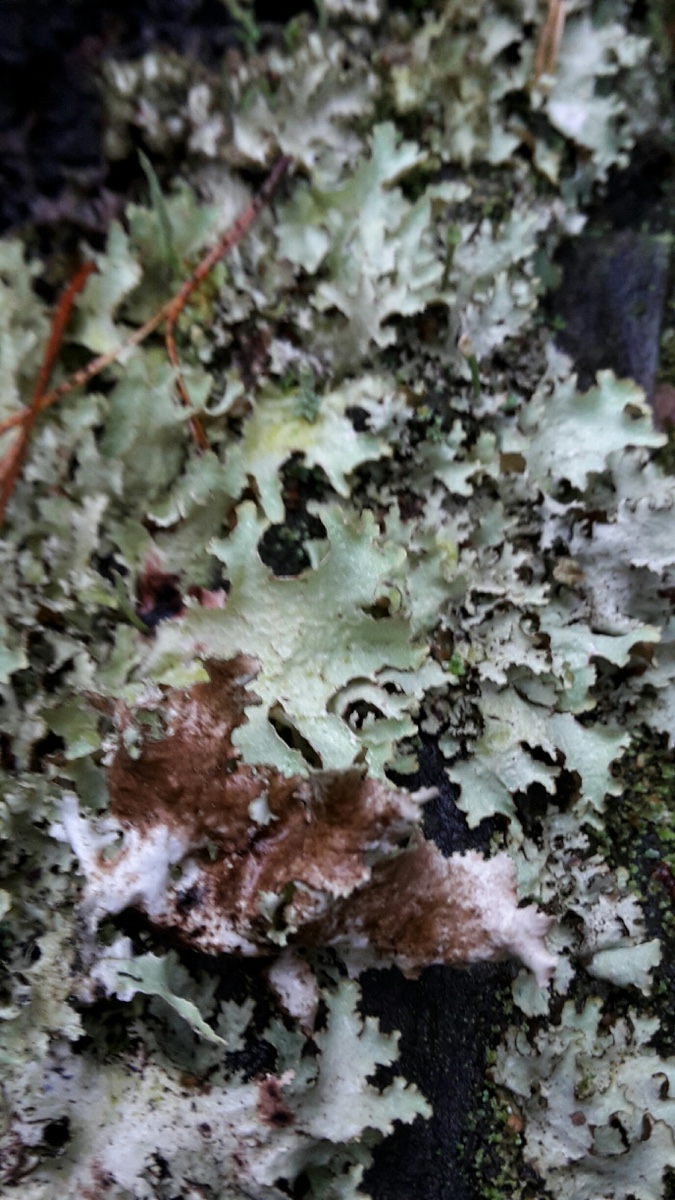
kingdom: Fungi
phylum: Ascomycota
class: Lecanoromycetes
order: Lecanorales
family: Parmeliaceae
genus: Platismatia
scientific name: Platismatia glauca
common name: blågrå papirlav
